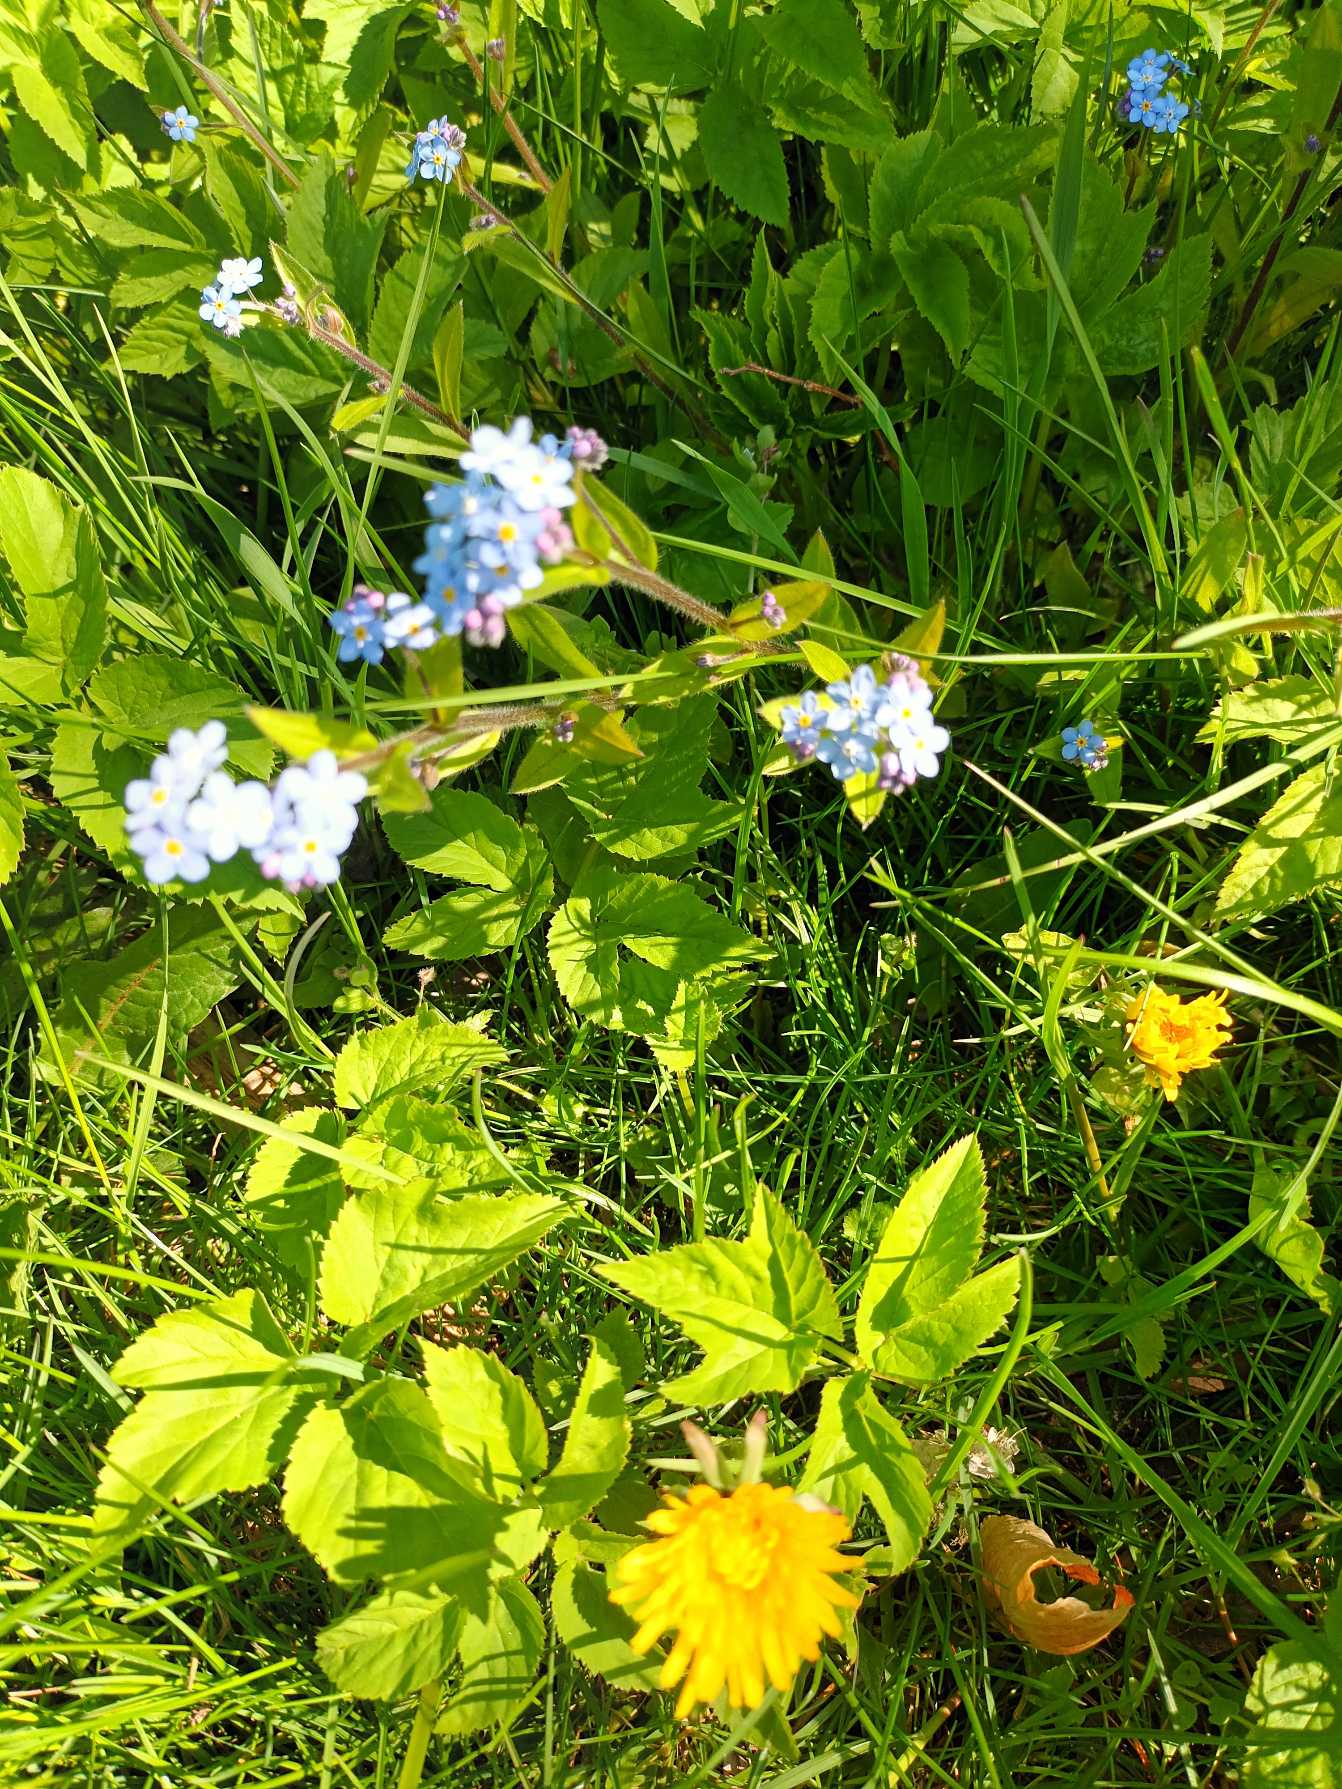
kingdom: Plantae
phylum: Tracheophyta
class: Magnoliopsida
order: Boraginales
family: Boraginaceae
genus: Myosotis
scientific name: Myosotis sylvatica
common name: Skov-forglemmigej
